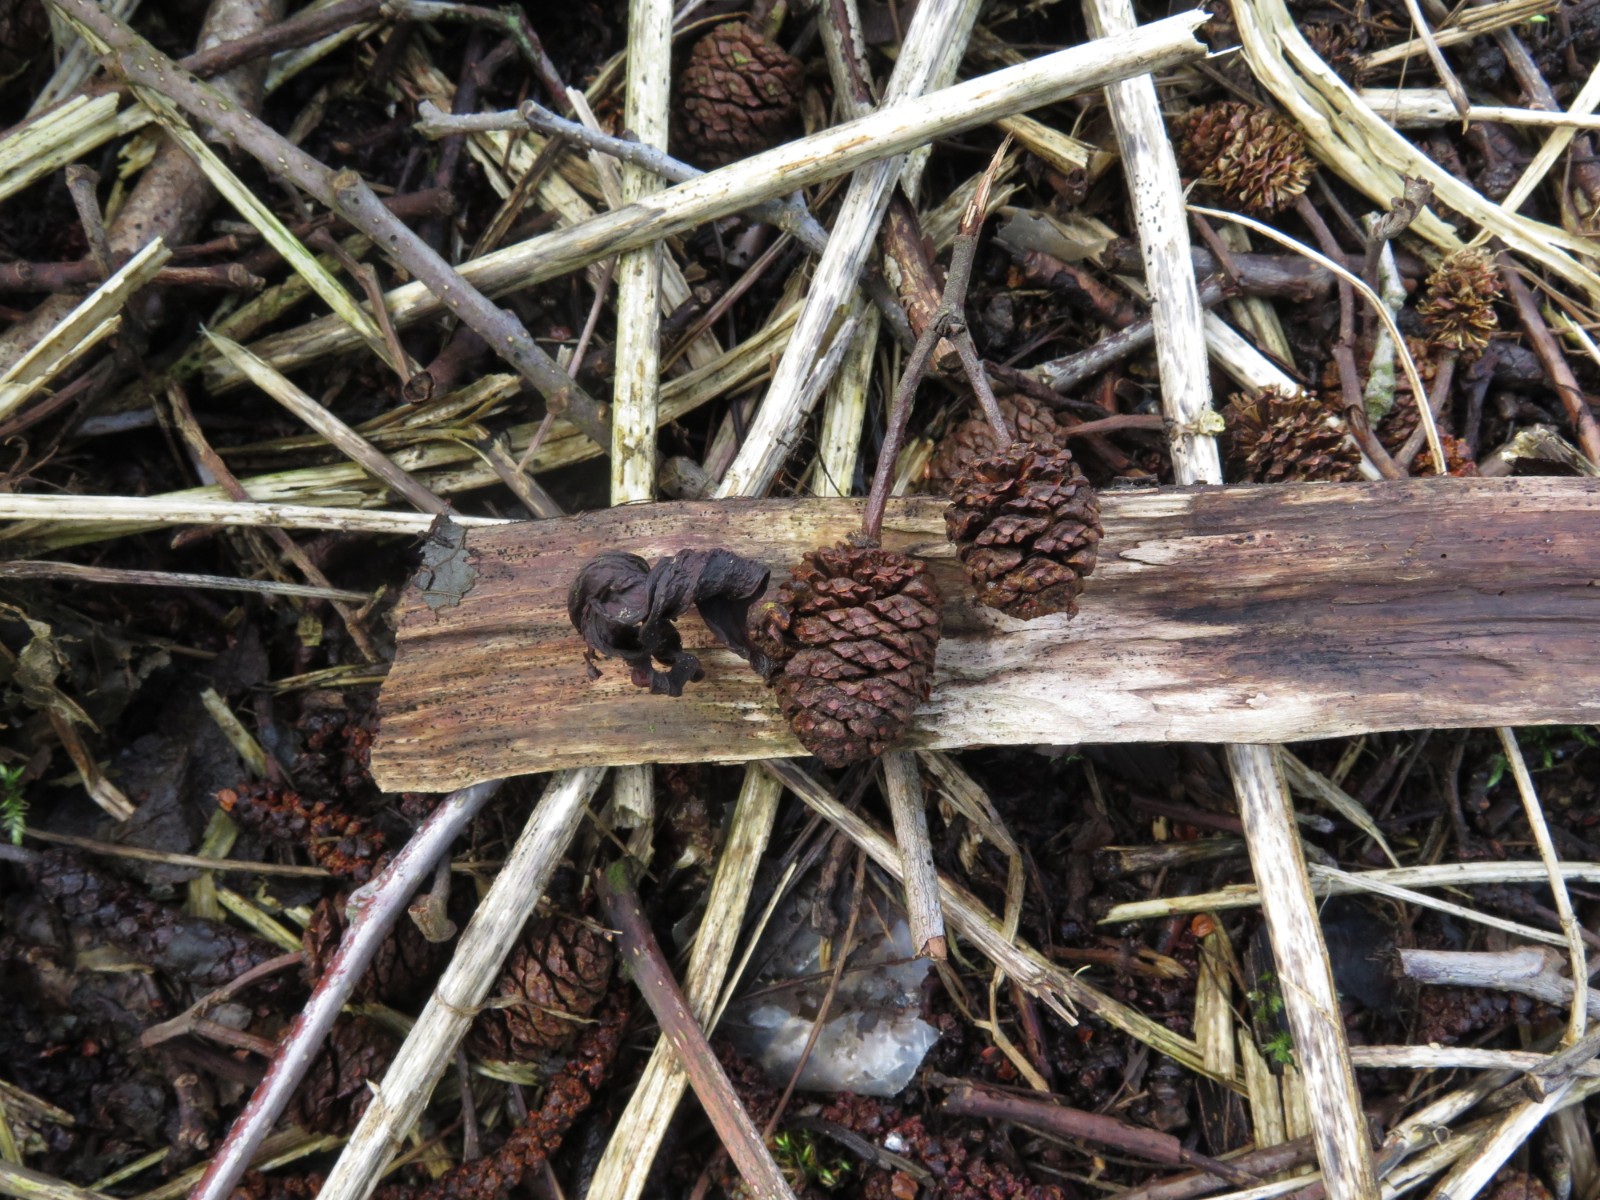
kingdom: Fungi
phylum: Ascomycota
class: Taphrinomycetes
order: Taphrinales
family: Taphrinaceae
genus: Taphrina
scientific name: Taphrina alni
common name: Alder tongue
